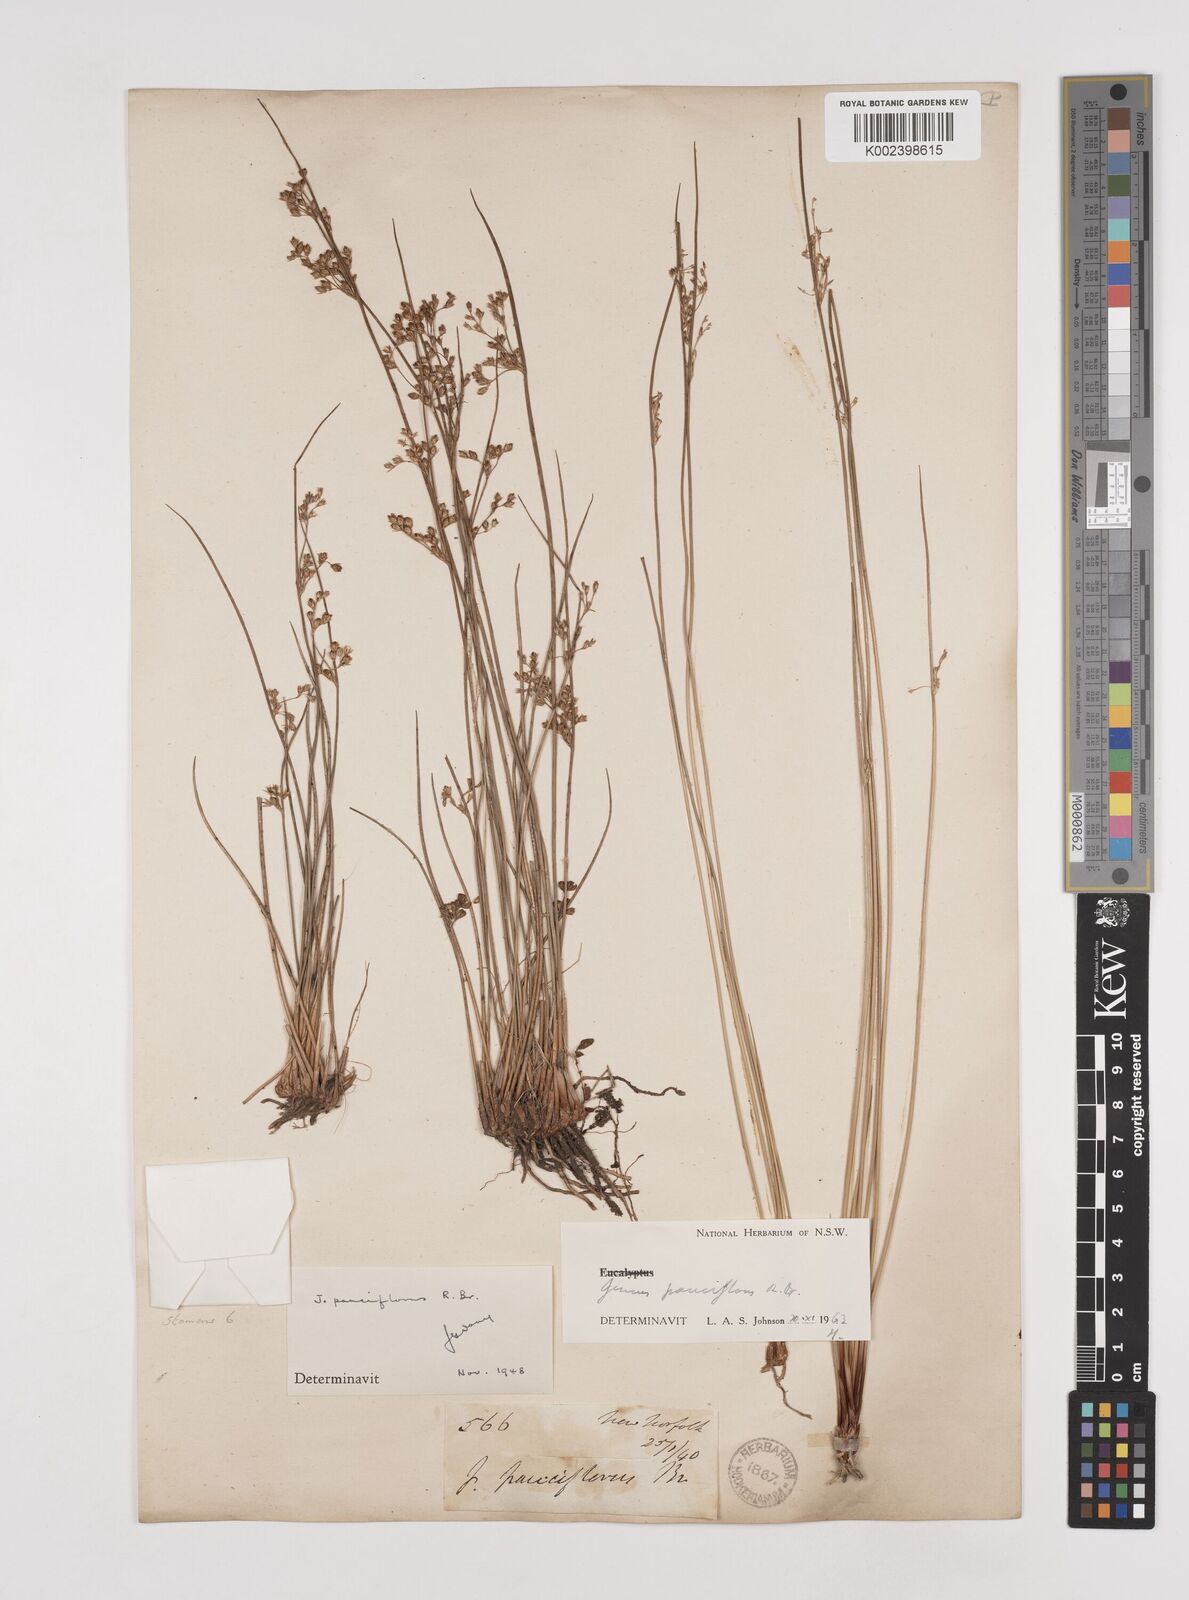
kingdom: Plantae
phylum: Tracheophyta
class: Liliopsida
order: Poales
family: Juncaceae
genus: Juncus
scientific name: Juncus pauciflorus
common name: Loose-flowered rush
